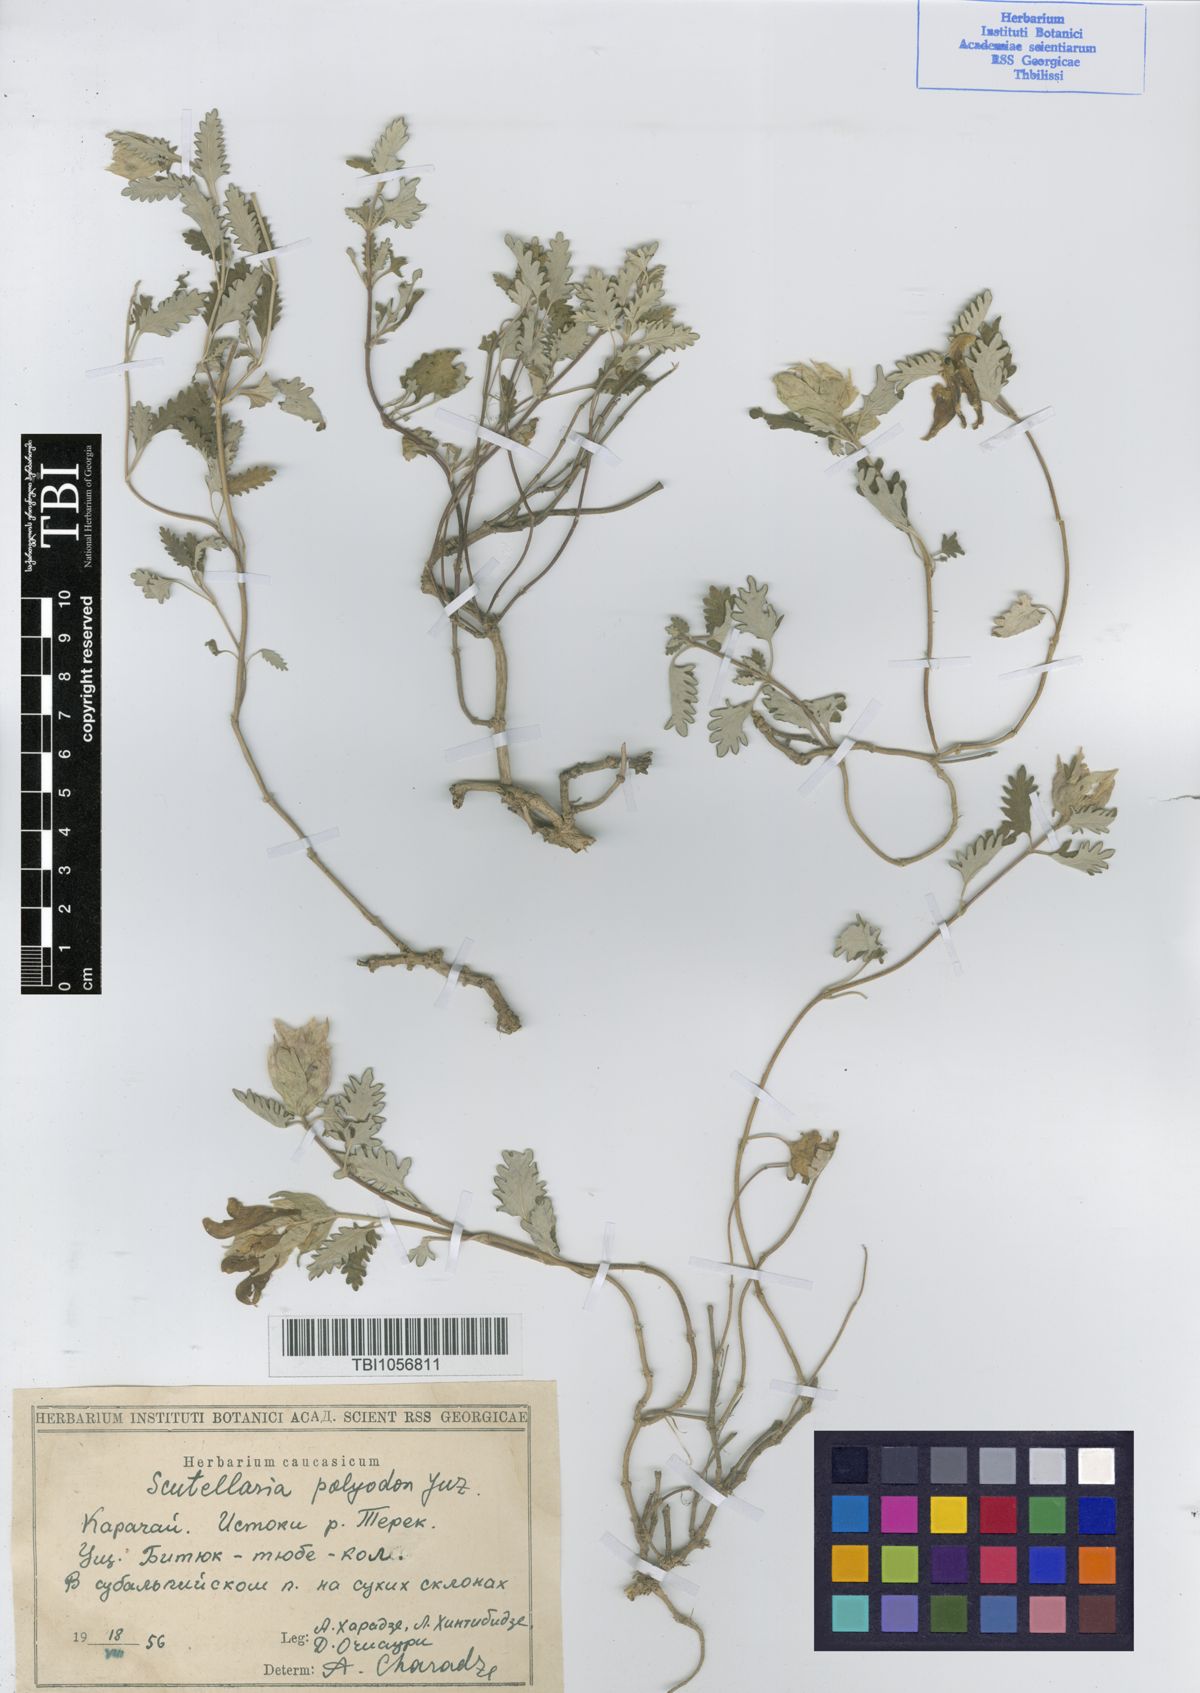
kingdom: Plantae
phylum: Tracheophyta
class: Magnoliopsida
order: Lamiales
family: Lamiaceae
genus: Scutellaria
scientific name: Scutellaria caucasica
